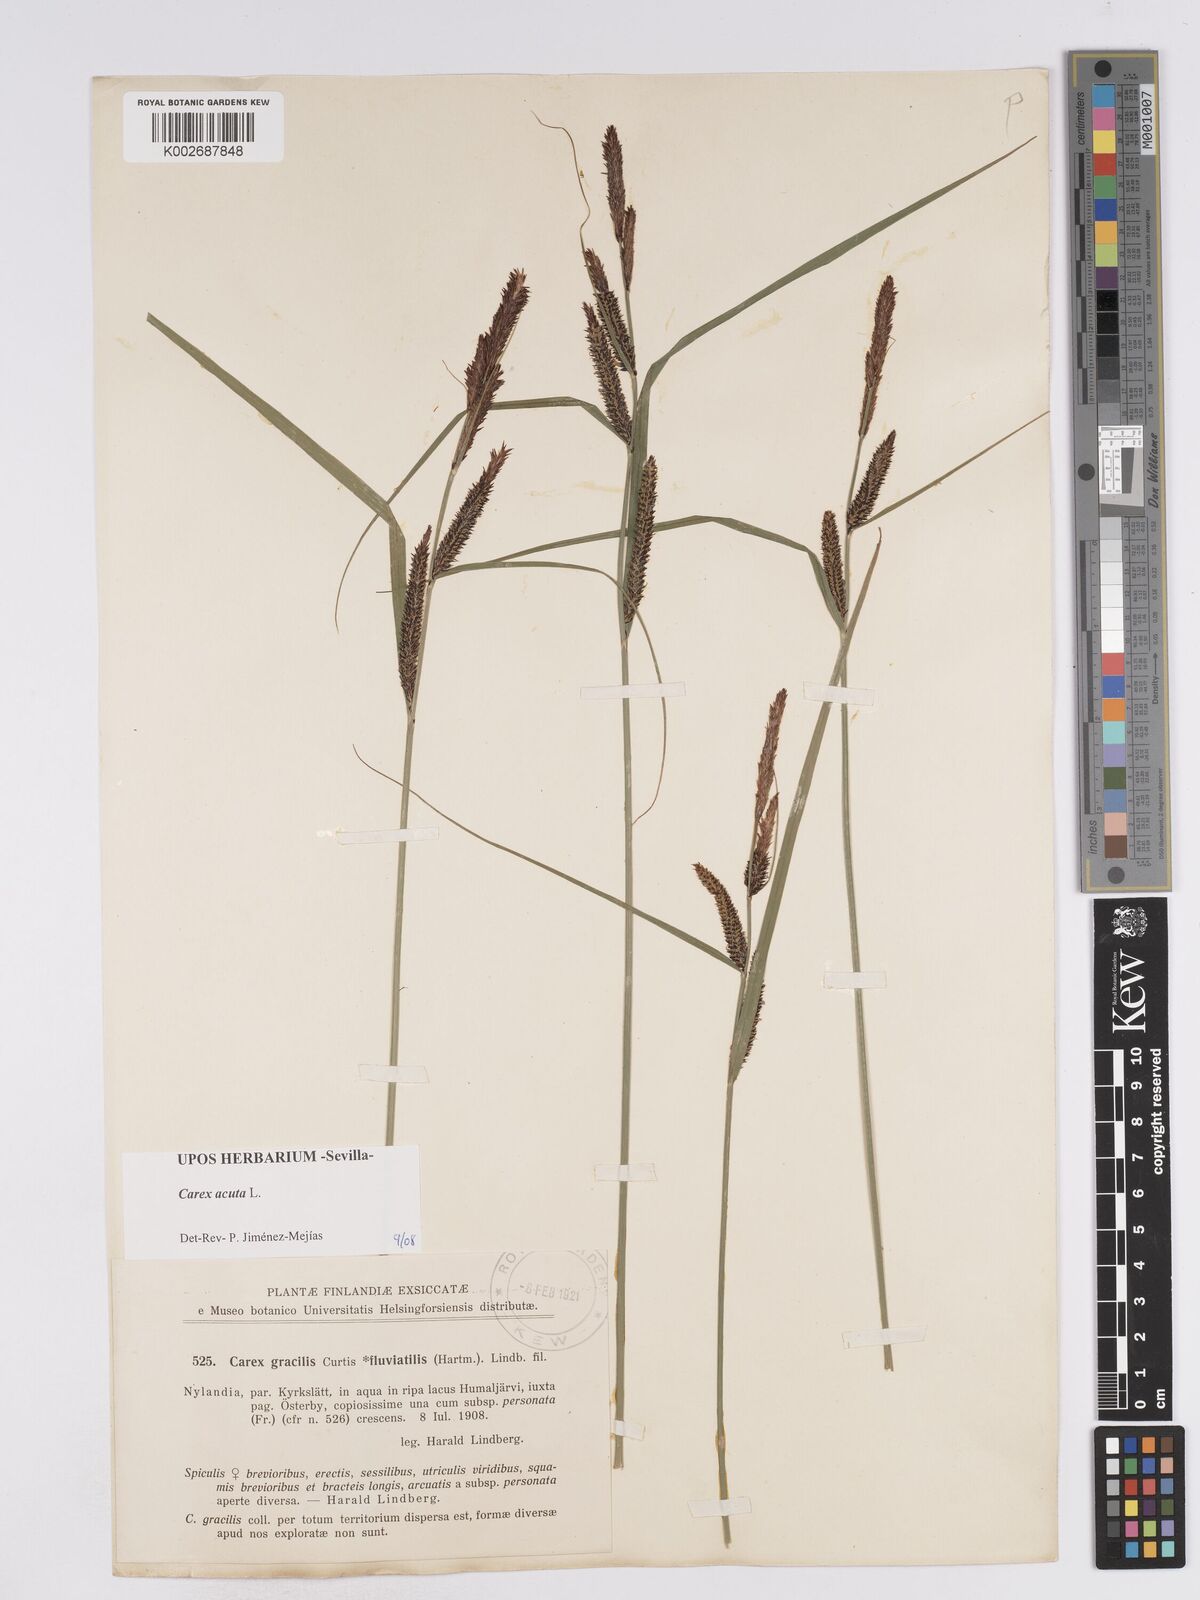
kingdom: Plantae
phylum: Tracheophyta
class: Liliopsida
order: Poales
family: Cyperaceae
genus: Carex
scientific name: Carex acuta
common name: Slender tufted-sedge
